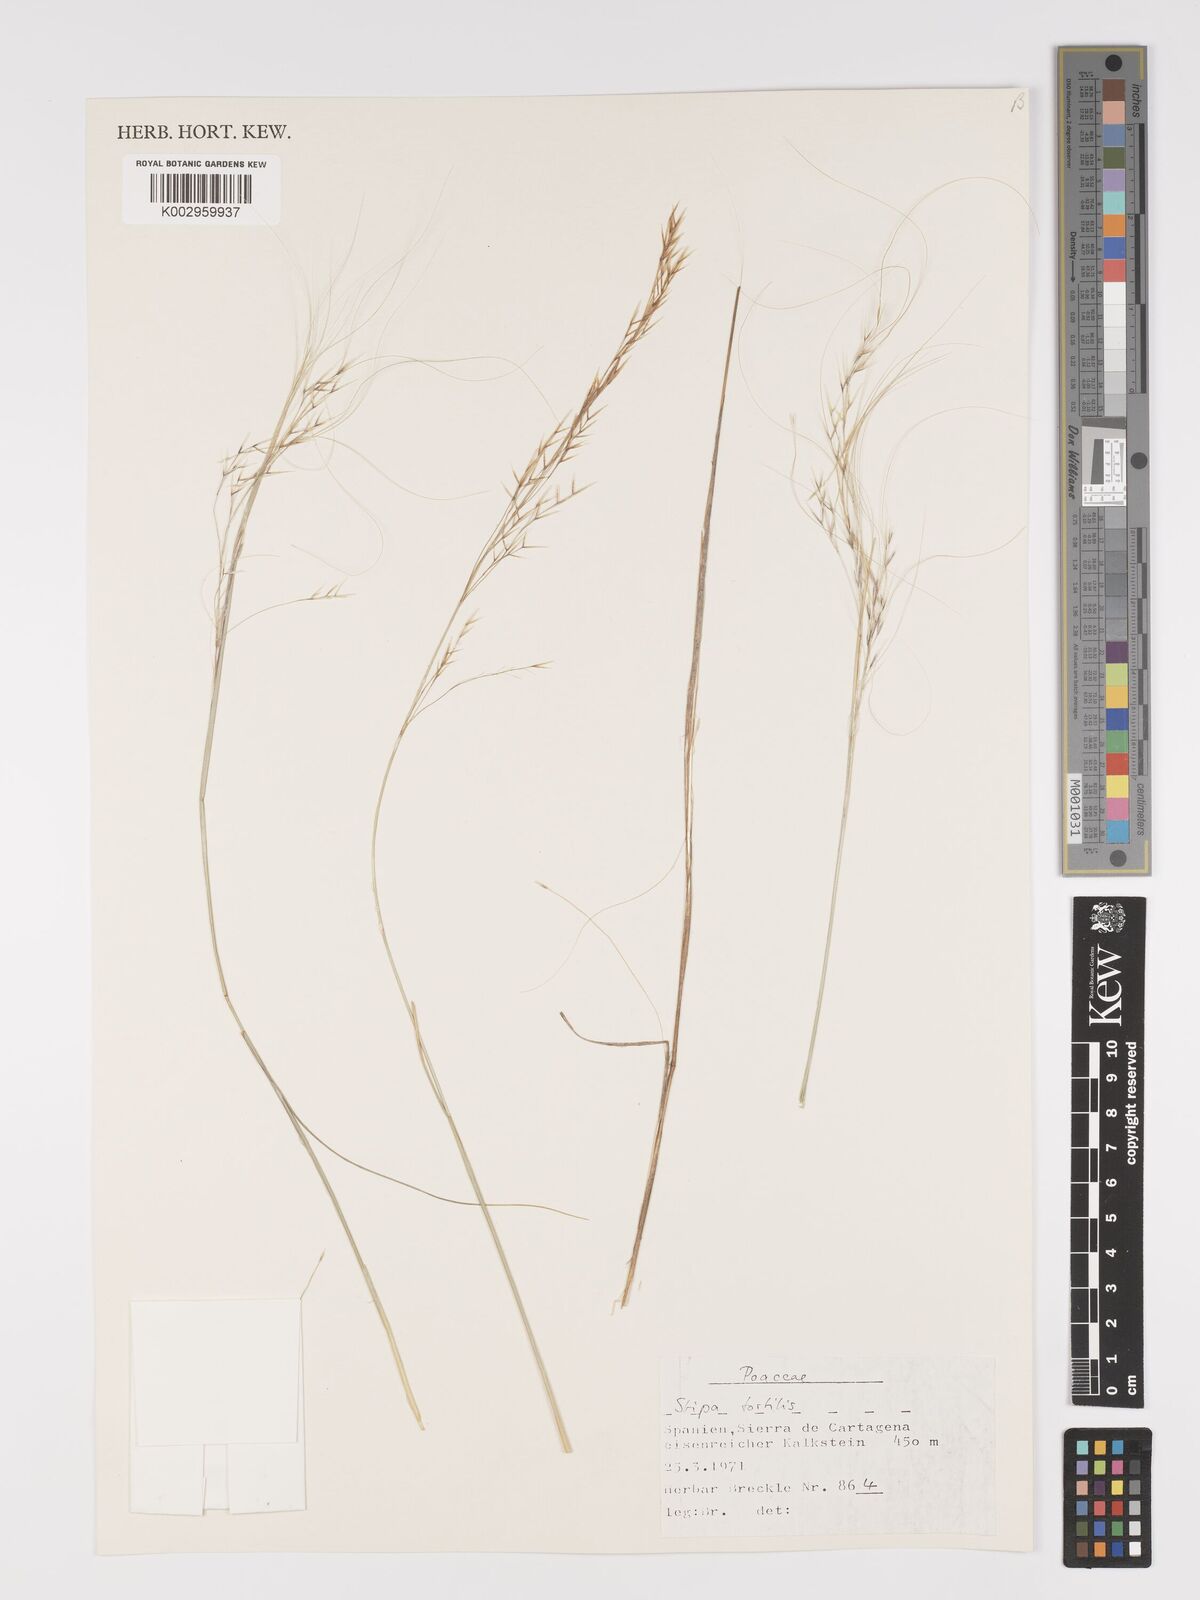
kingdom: Plantae
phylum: Tracheophyta
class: Liliopsida
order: Poales
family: Poaceae
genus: Stipa
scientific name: Stipa
